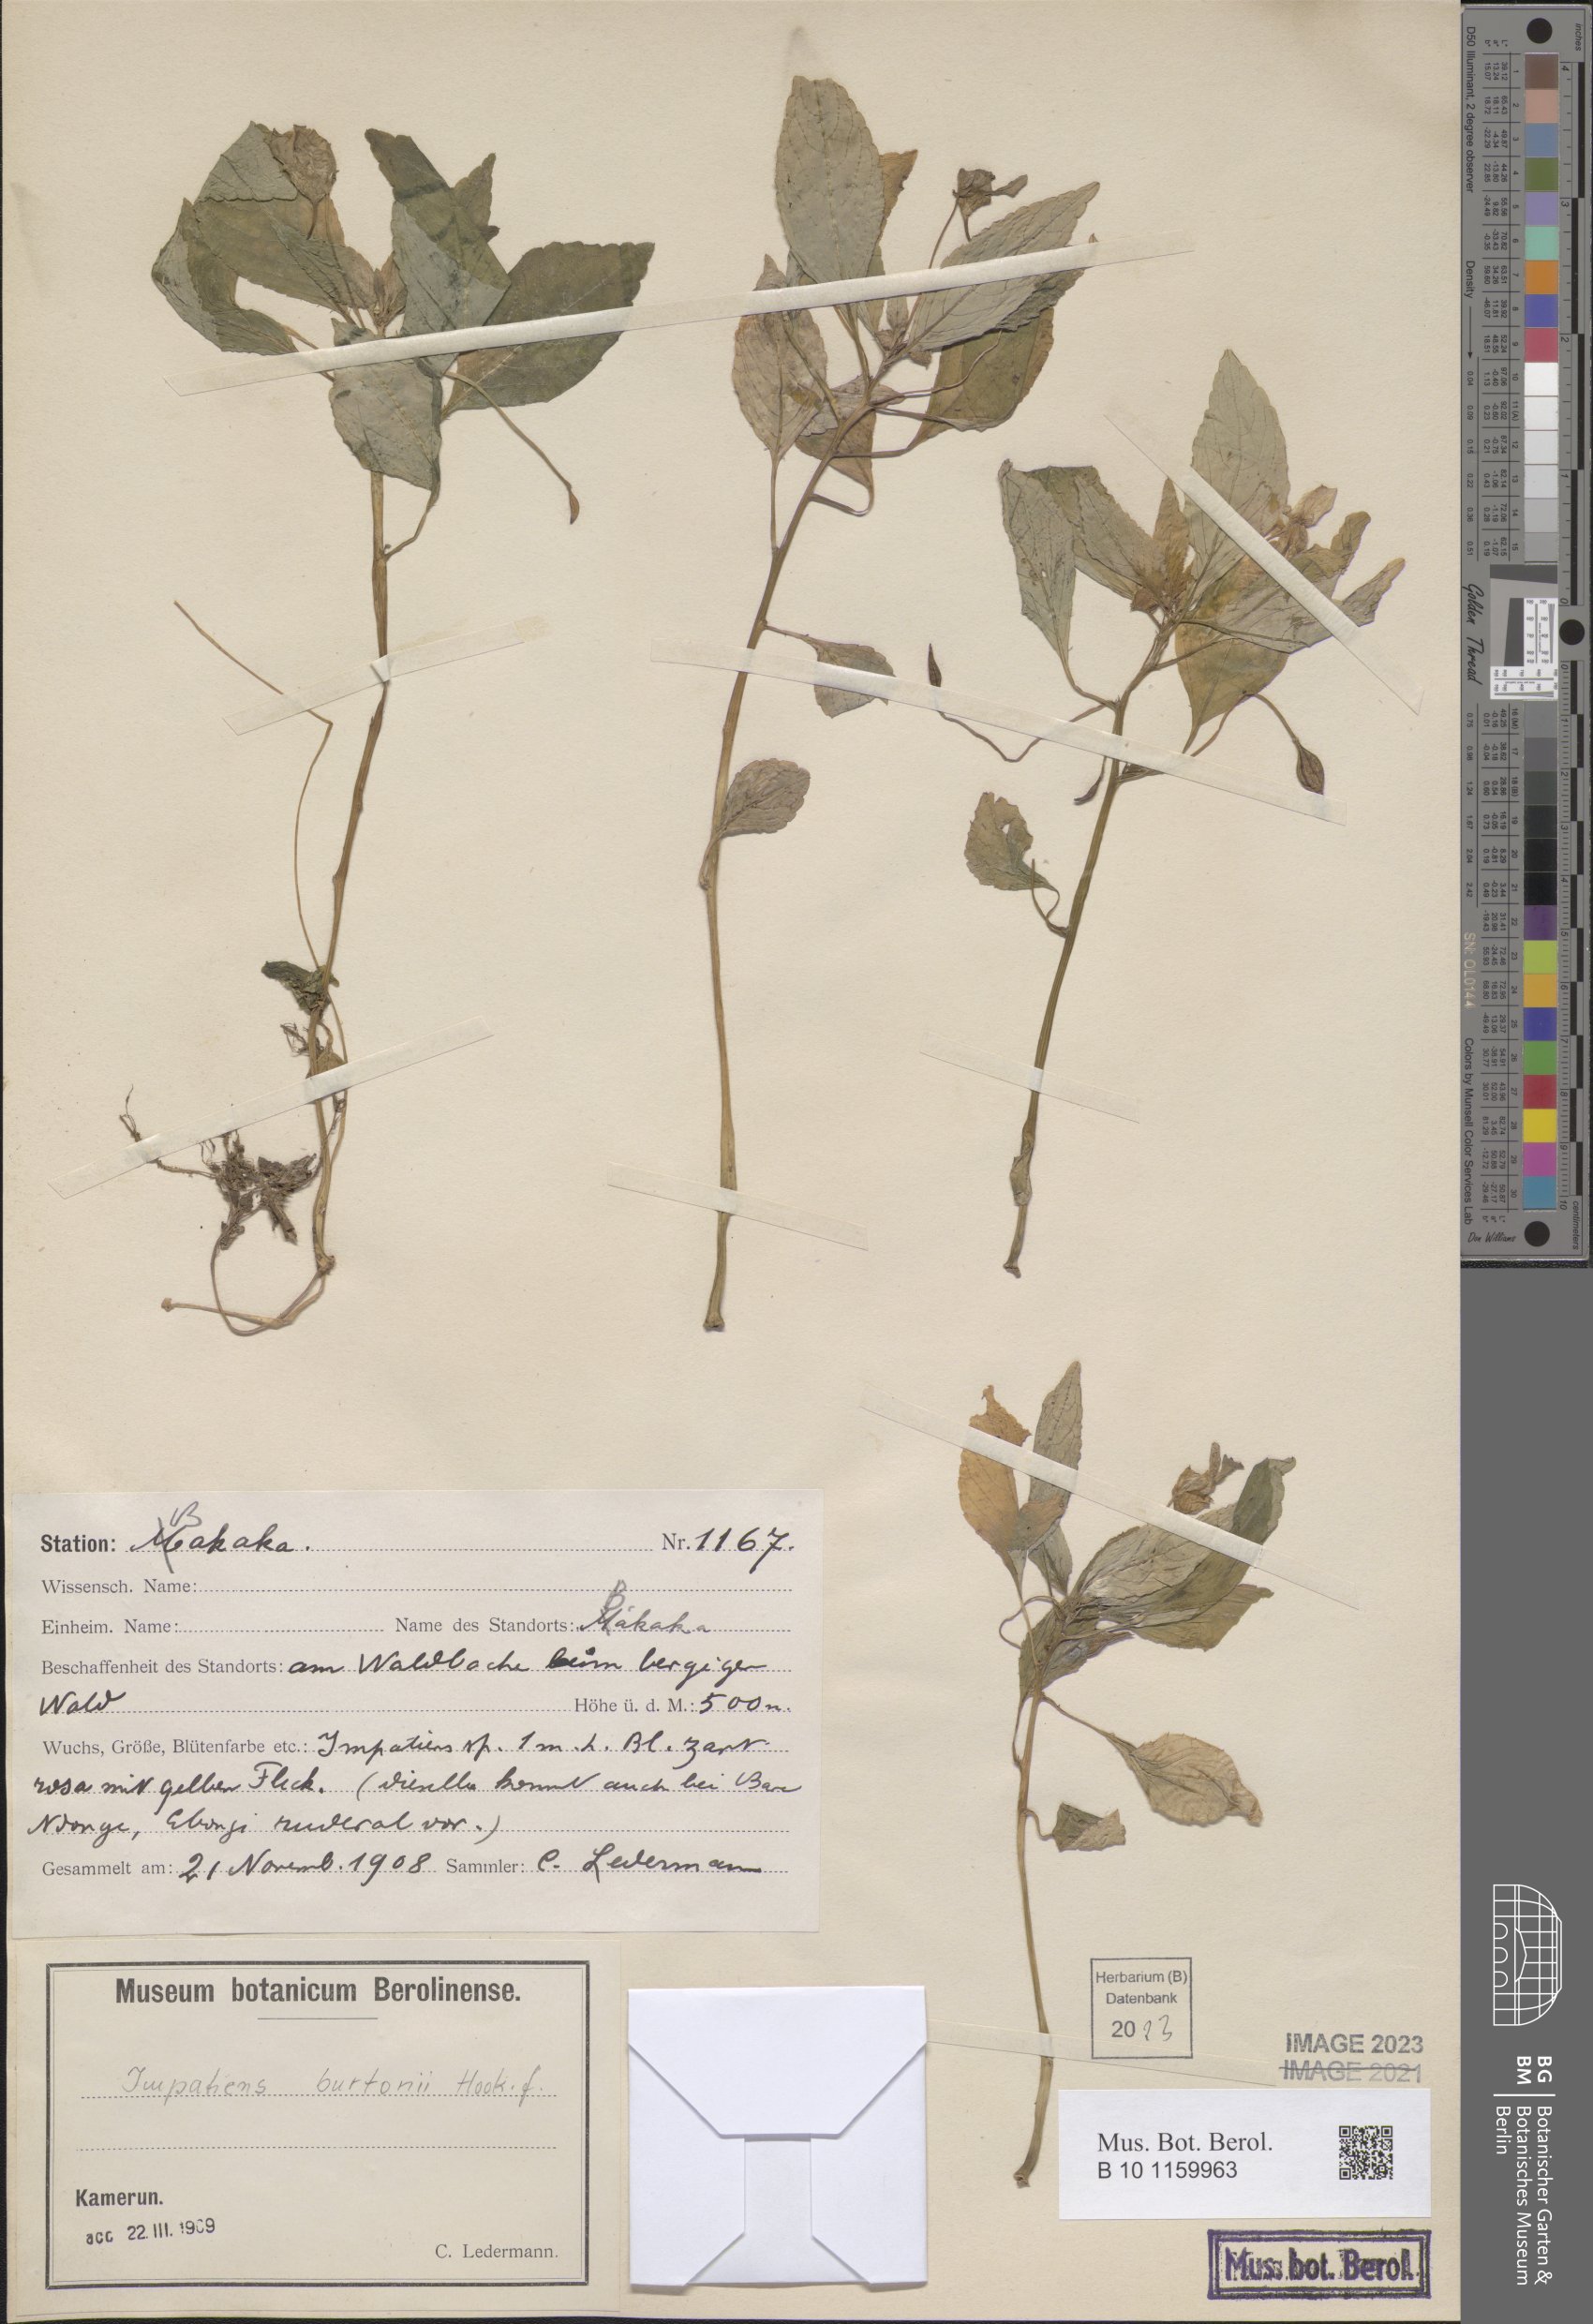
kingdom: Plantae
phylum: Tracheophyta
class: Magnoliopsida
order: Ericales
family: Balsaminaceae
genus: Impatiens
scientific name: Impatiens burtonii
